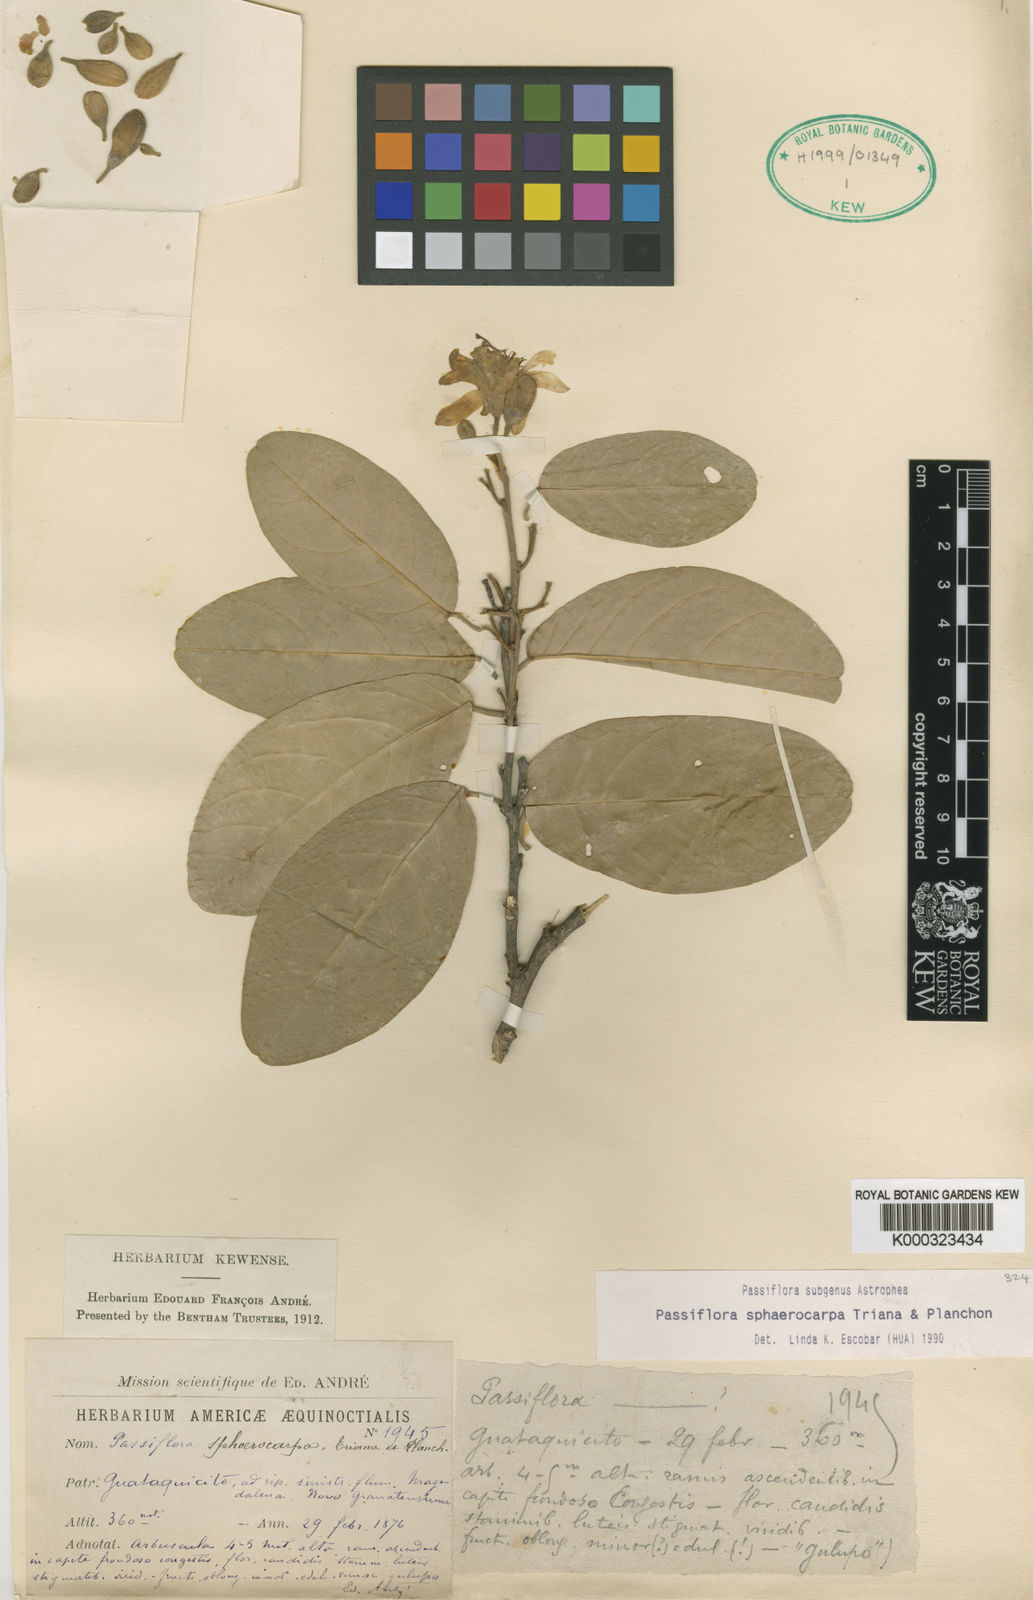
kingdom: Plantae
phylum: Tracheophyta
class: Magnoliopsida
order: Malpighiales
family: Passifloraceae
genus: Passiflora
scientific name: Passiflora sphaerocarpa
